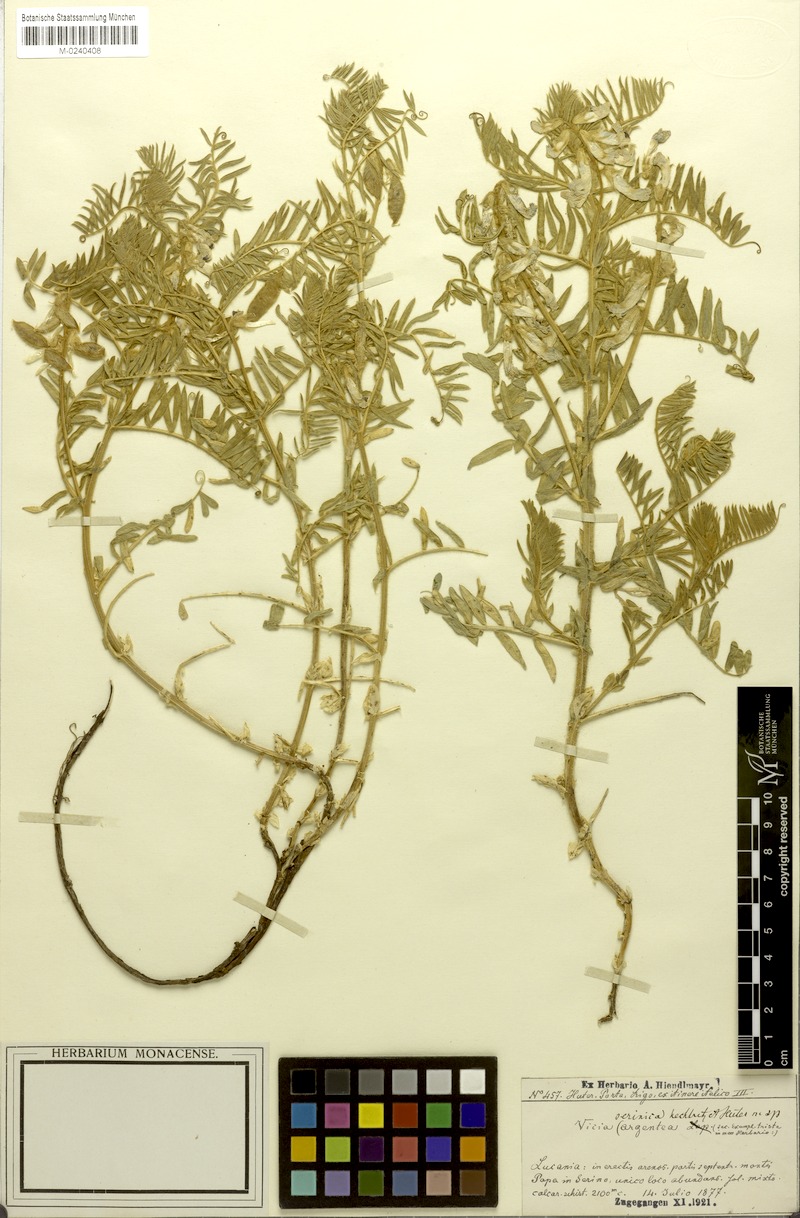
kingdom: Plantae
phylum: Tracheophyta
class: Magnoliopsida
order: Fabales
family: Fabaceae
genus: Vicia
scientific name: Vicia canescens
